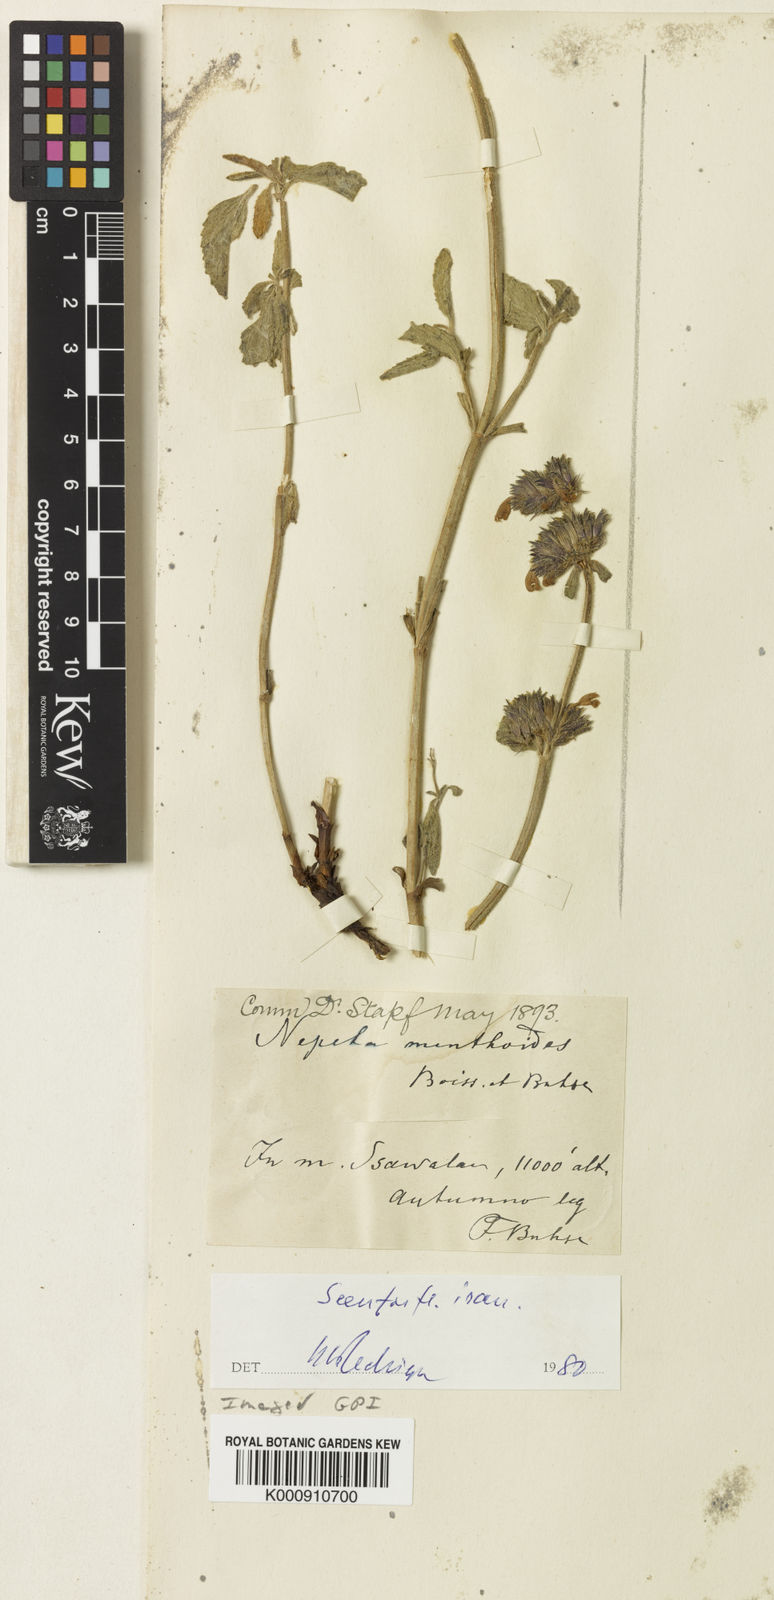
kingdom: Plantae
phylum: Tracheophyta
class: Magnoliopsida
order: Lamiales
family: Lamiaceae
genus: Nepeta
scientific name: Nepeta menthoides
